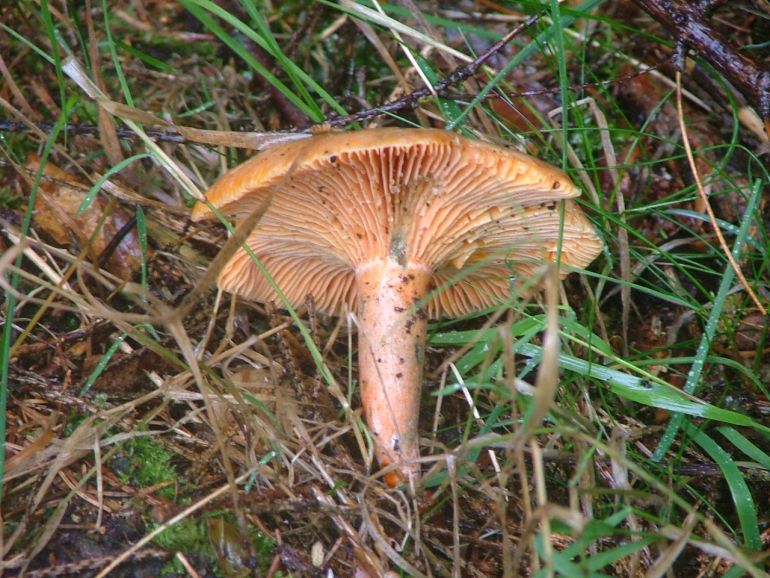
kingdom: Fungi
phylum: Basidiomycota
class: Agaricomycetes
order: Russulales
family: Russulaceae
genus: Lactarius
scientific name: Lactarius deterrimus
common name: gran-mælkehat
